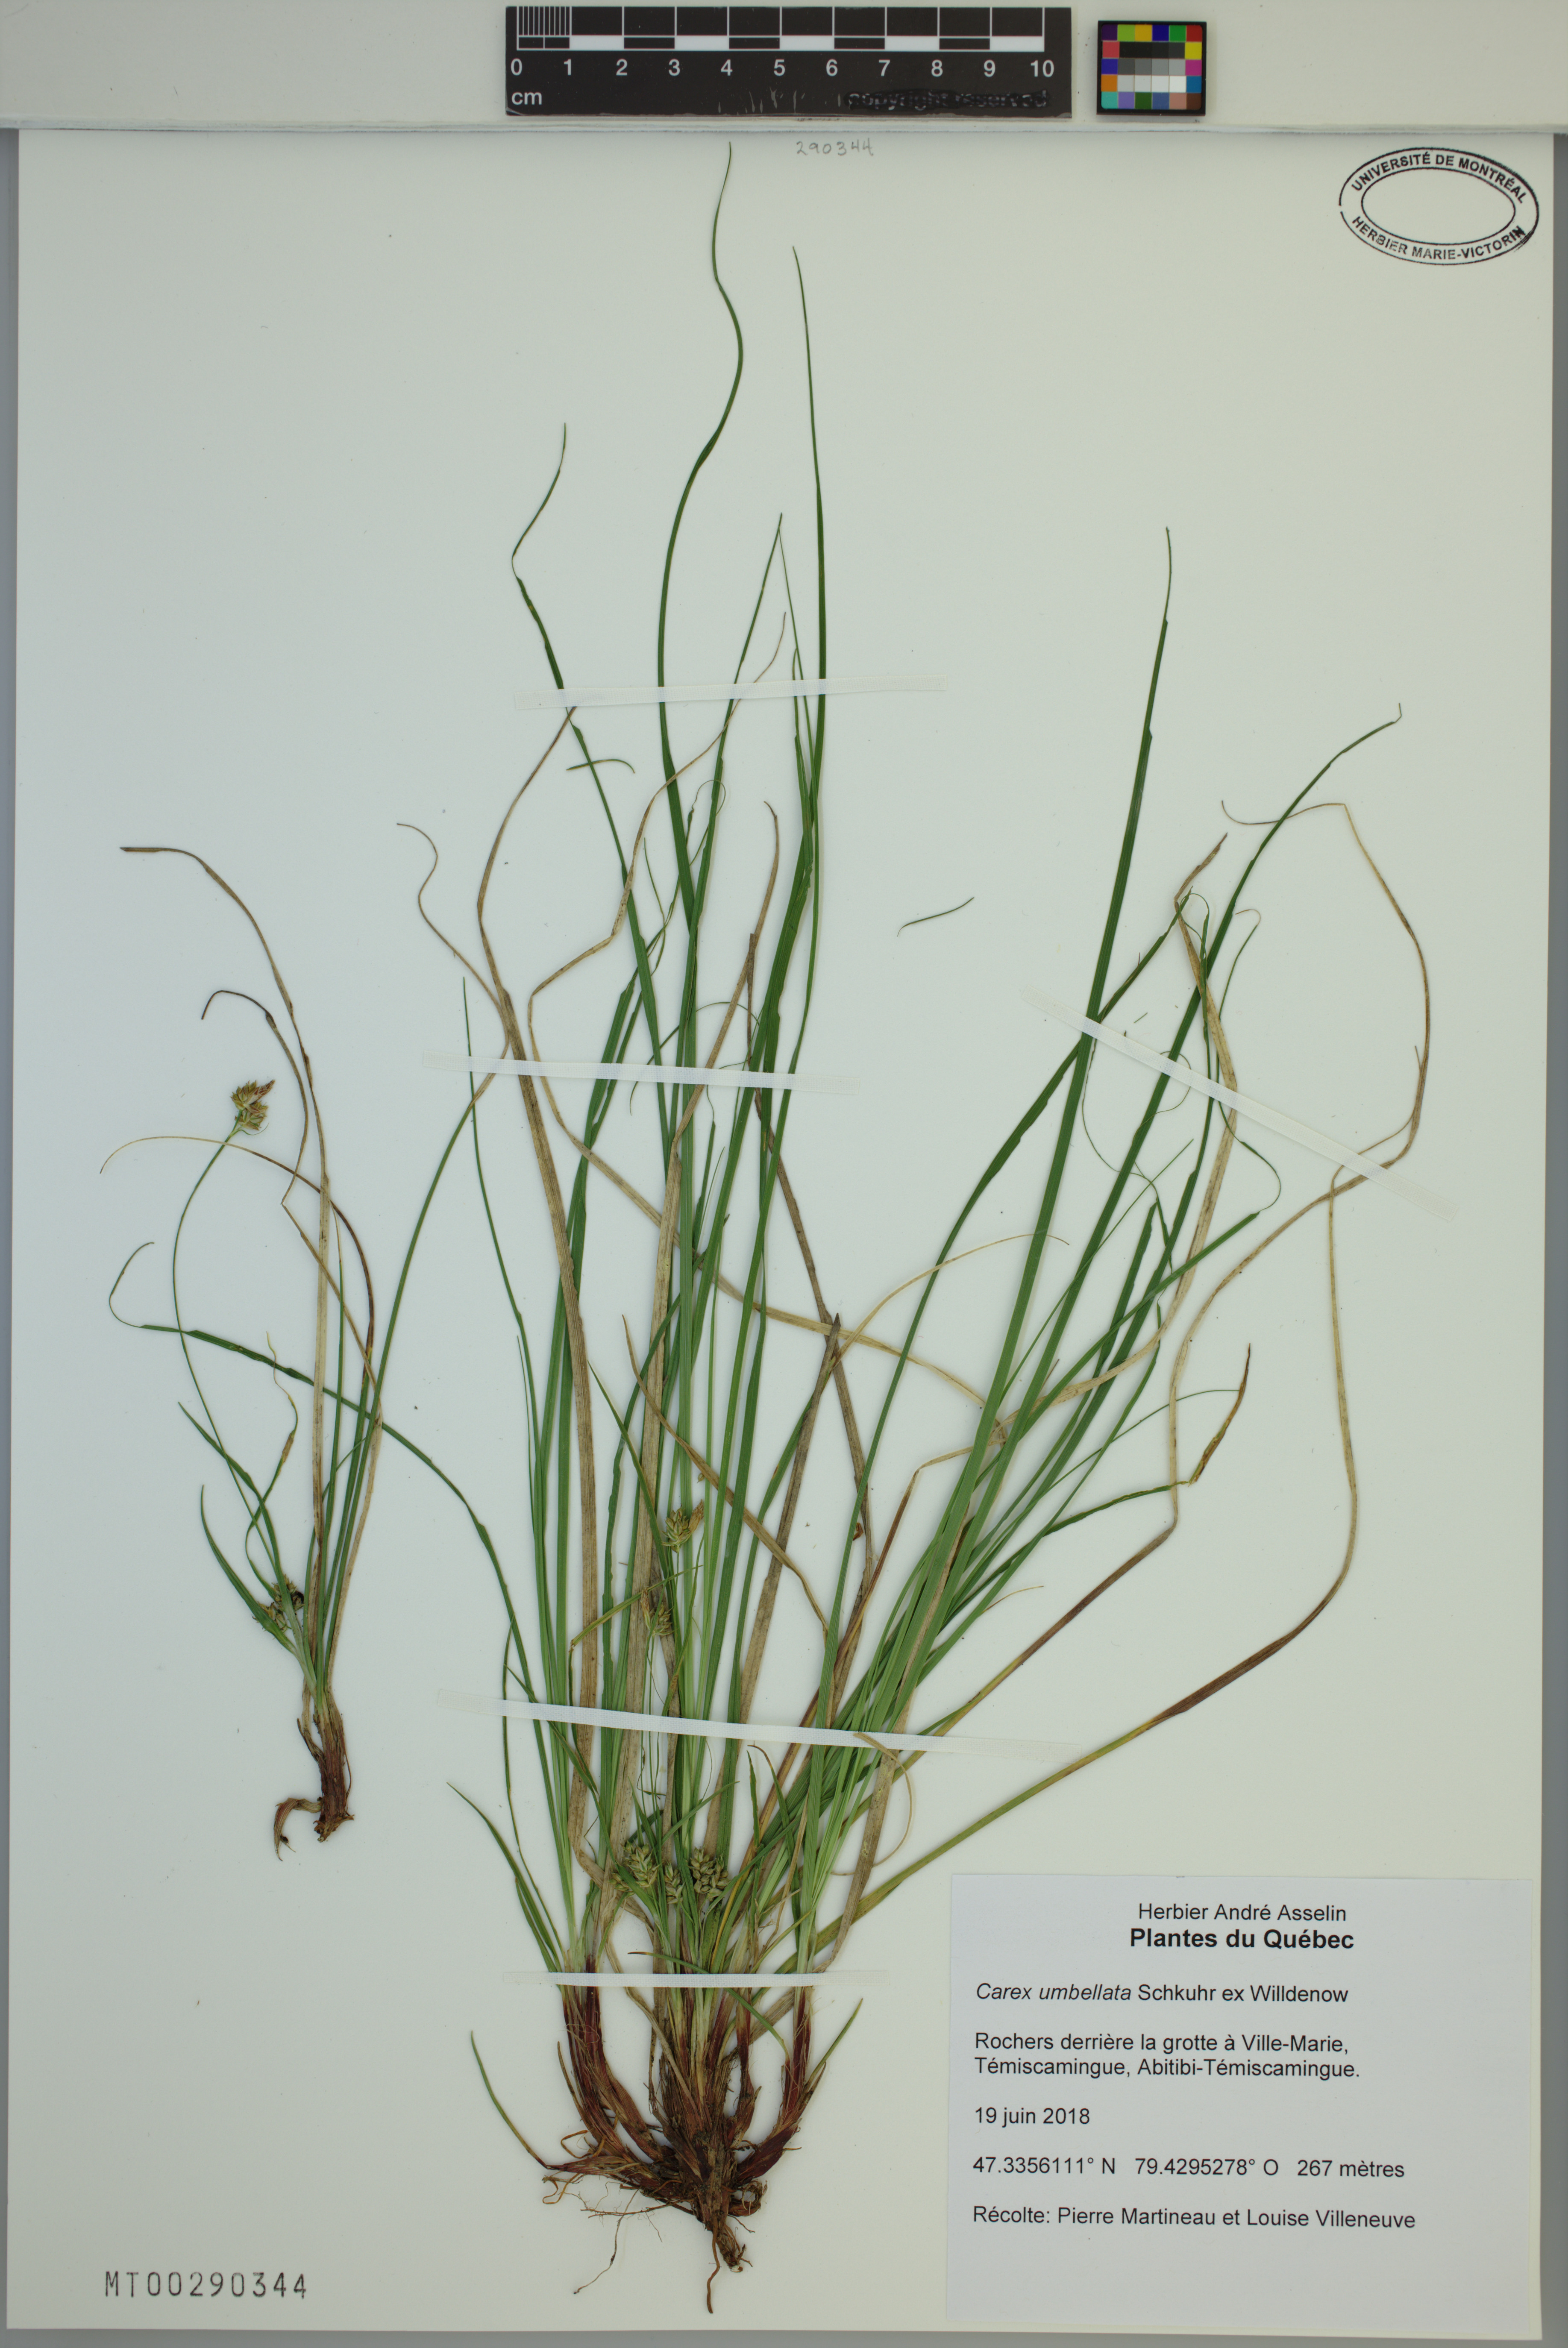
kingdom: Plantae
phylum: Tracheophyta
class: Liliopsida
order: Poales
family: Cyperaceae
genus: Carex
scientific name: Carex umbellata
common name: Early oak sedge
